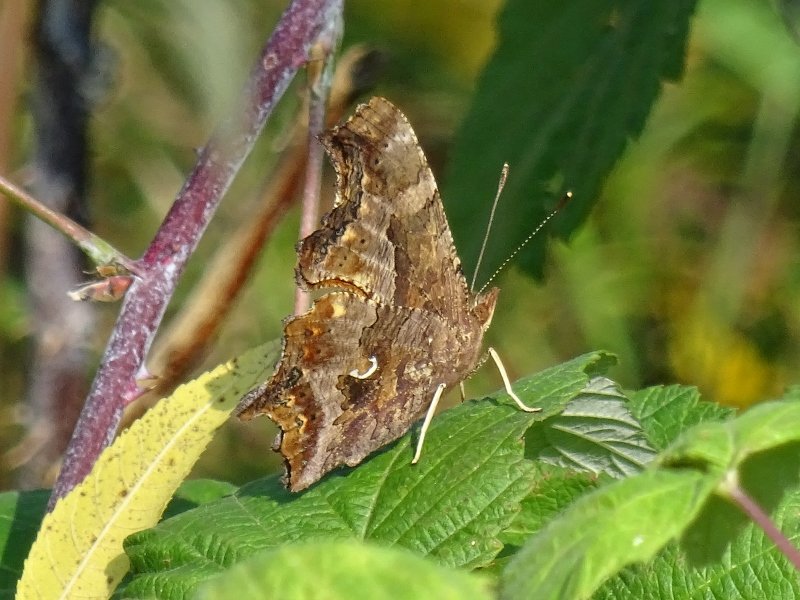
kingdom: Animalia
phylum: Arthropoda
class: Insecta
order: Lepidoptera
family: Nymphalidae
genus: Polygonia
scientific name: Polygonia comma
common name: Eastern Comma
